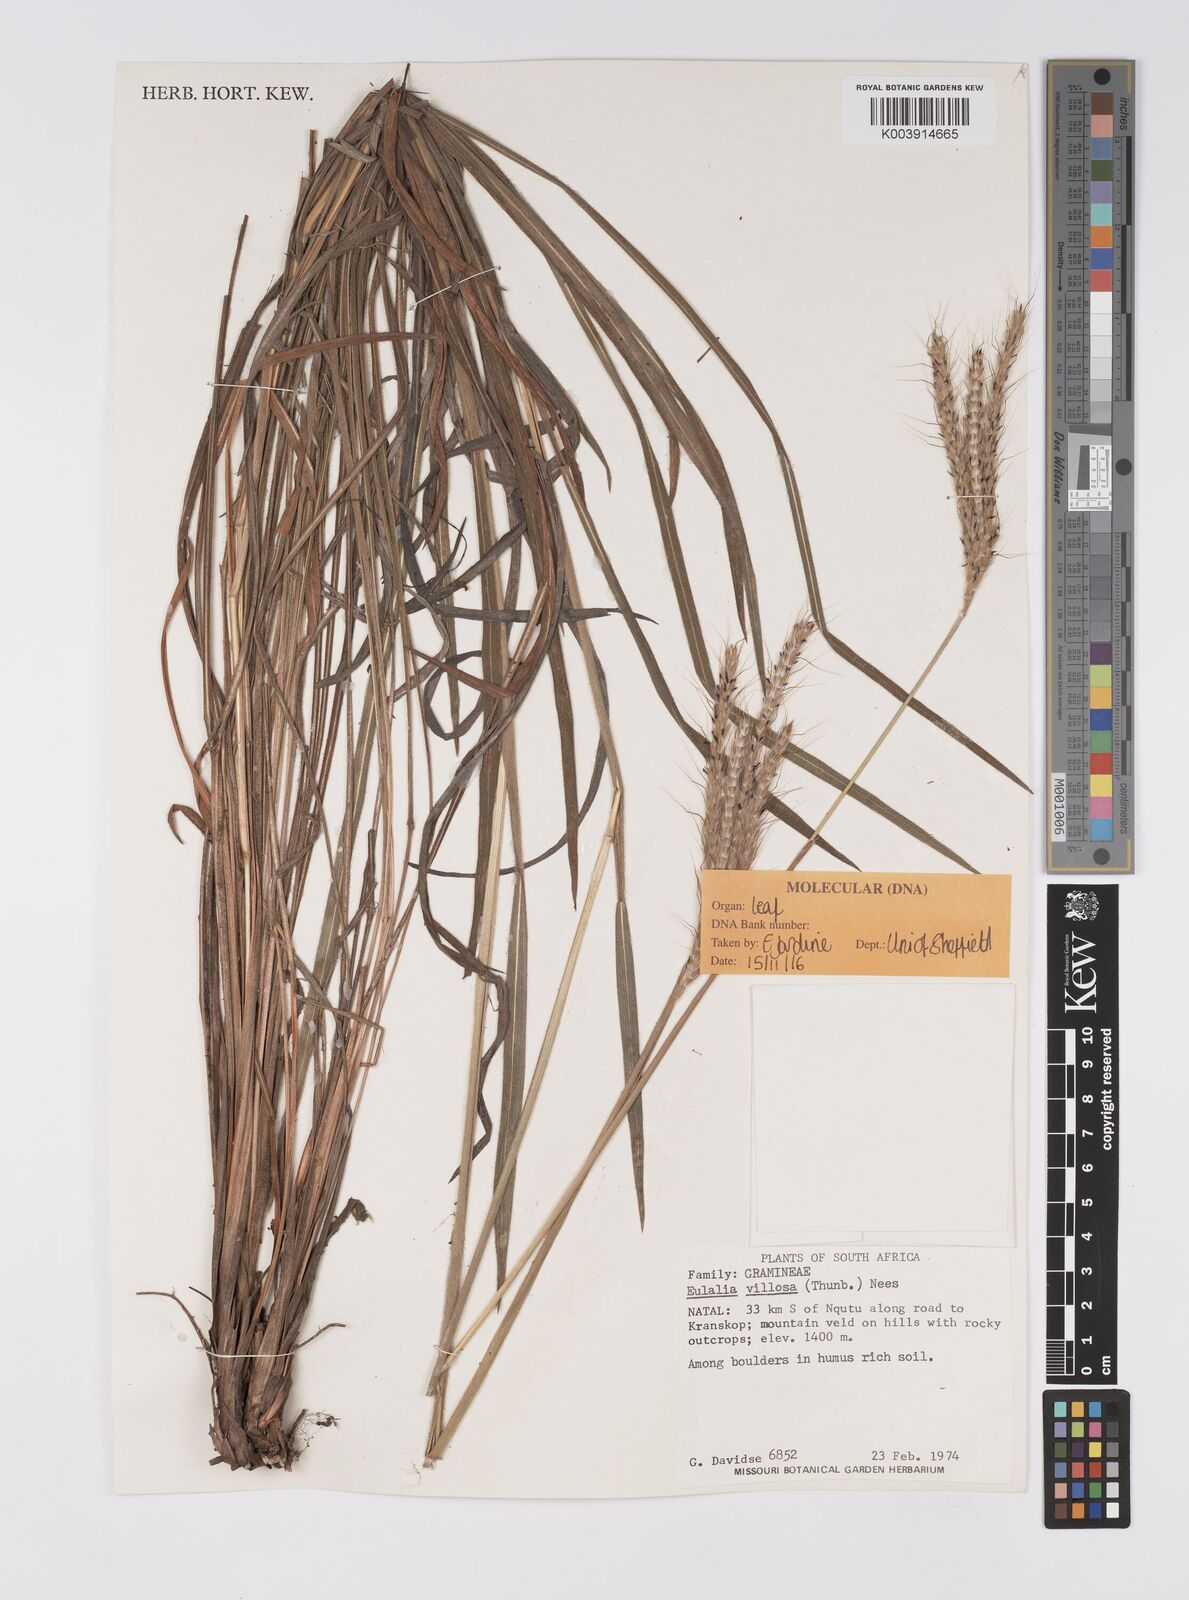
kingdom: Plantae
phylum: Tracheophyta
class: Liliopsida
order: Poales
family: Poaceae
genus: Eulalia
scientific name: Eulalia villosa
